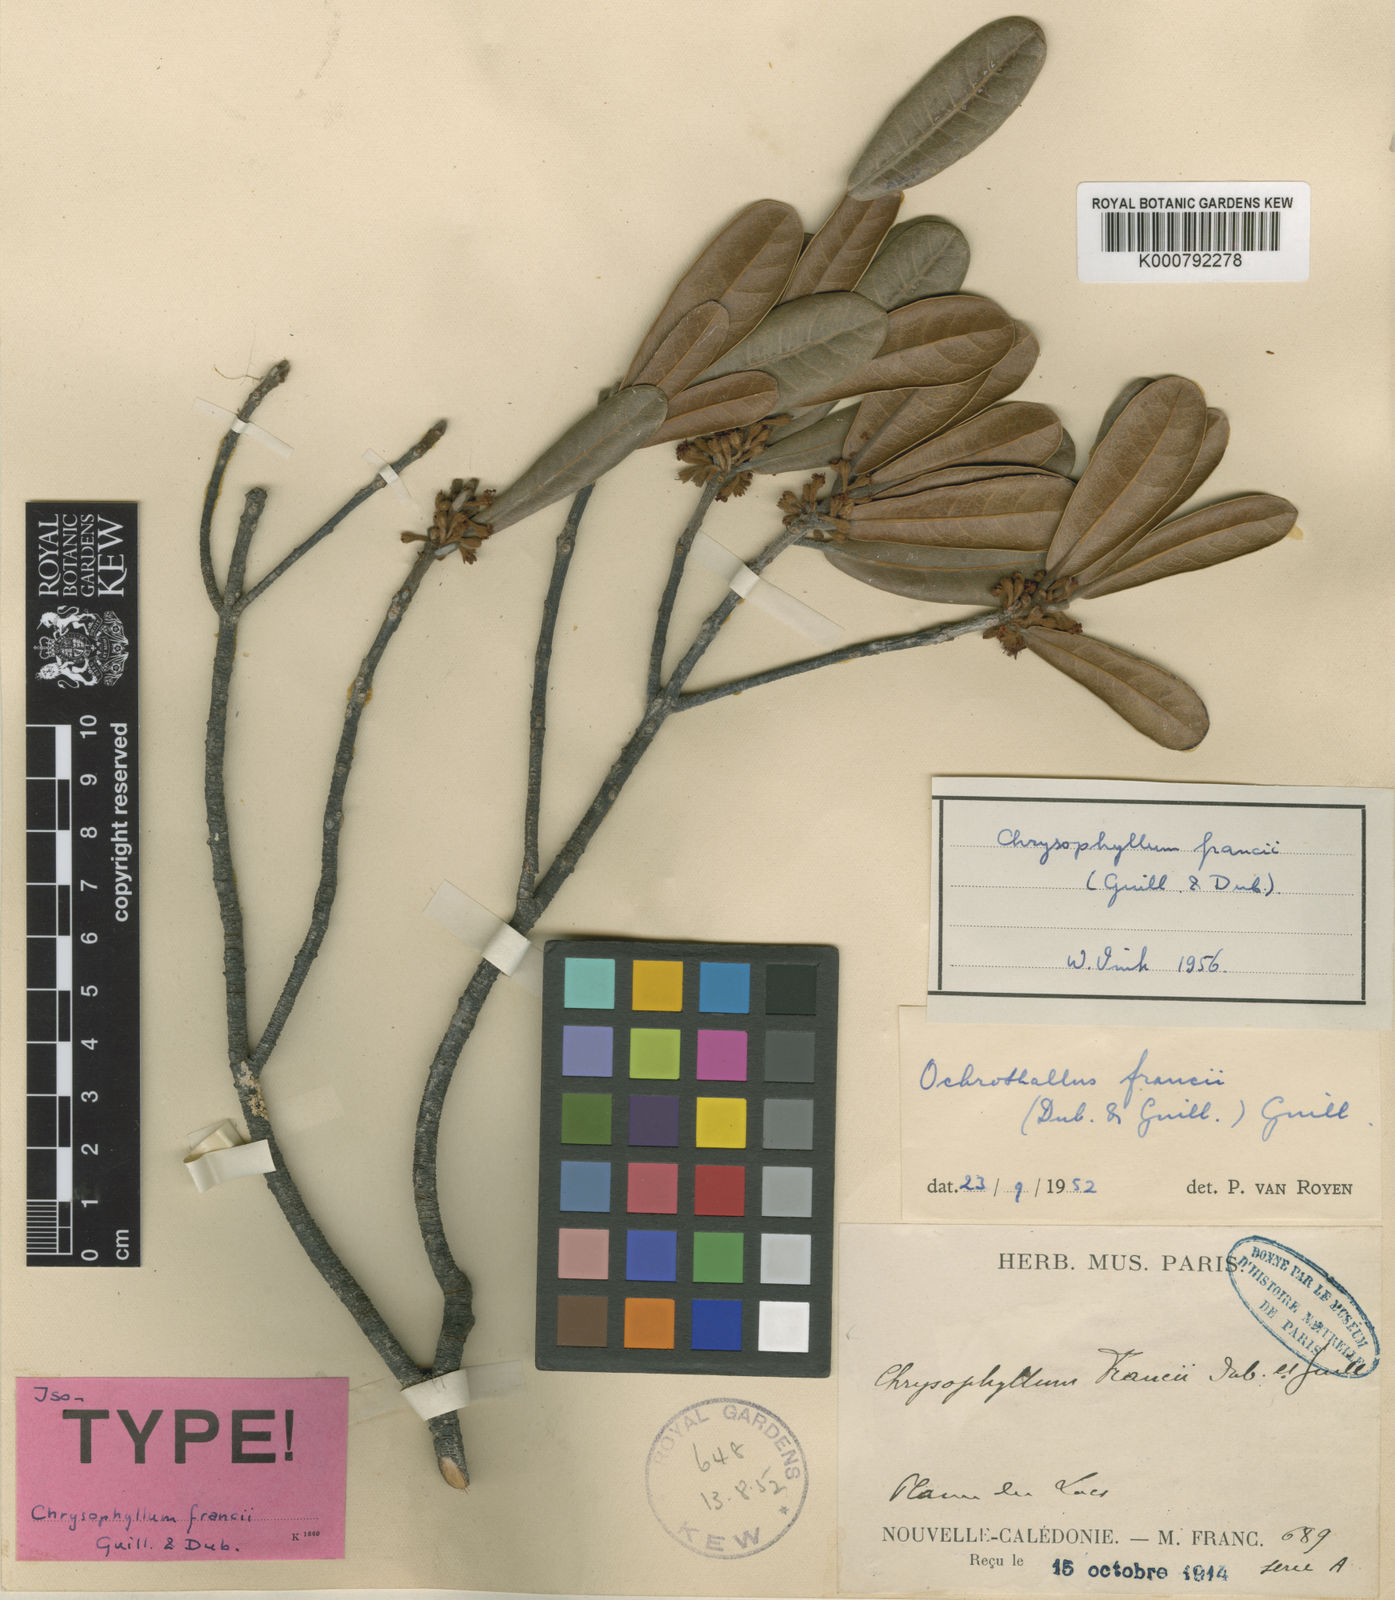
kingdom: Plantae
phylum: Tracheophyta
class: Magnoliopsida
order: Ericales
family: Sapotaceae
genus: Pycnandra
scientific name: Pycnandra francii
